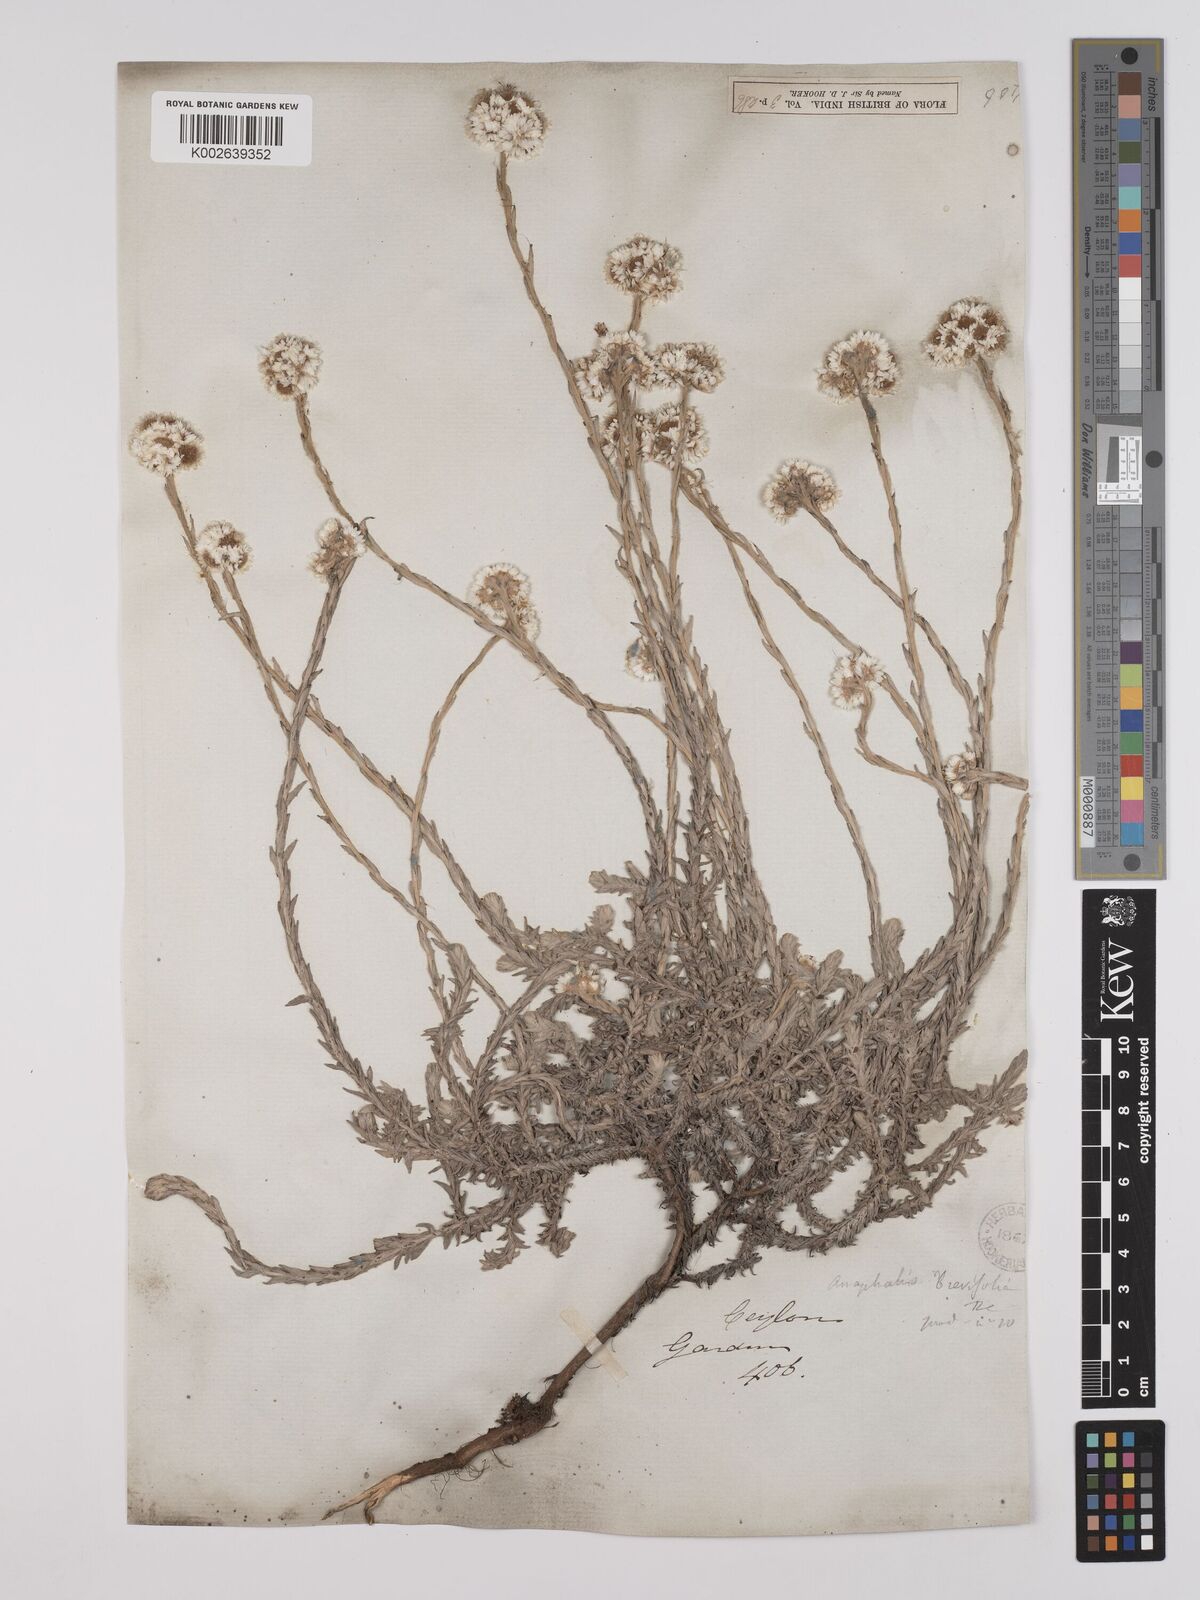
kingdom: Plantae
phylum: Tracheophyta
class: Magnoliopsida
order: Asterales
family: Asteraceae
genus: Anaphalis
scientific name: Anaphalis brevifolia
